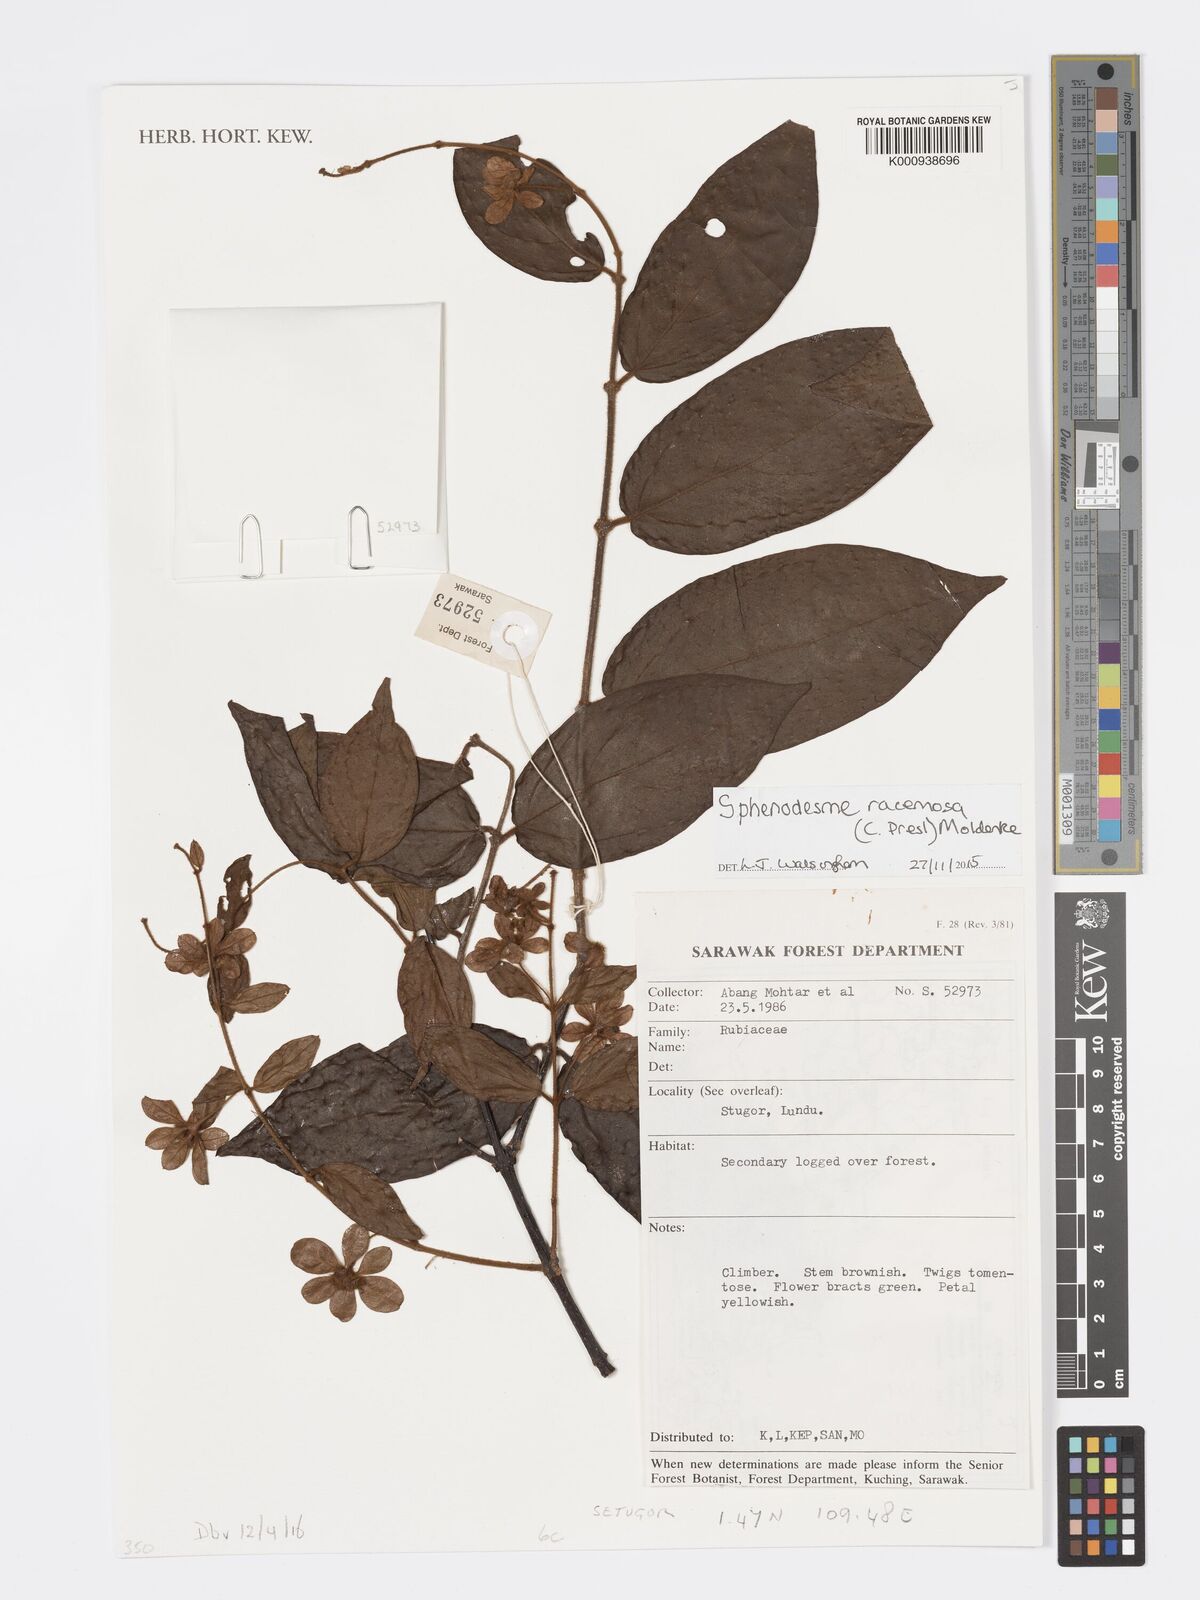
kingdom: Plantae
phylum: Tracheophyta
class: Magnoliopsida
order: Lamiales
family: Lamiaceae
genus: Sphenodesme
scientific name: Sphenodesme racemosa
